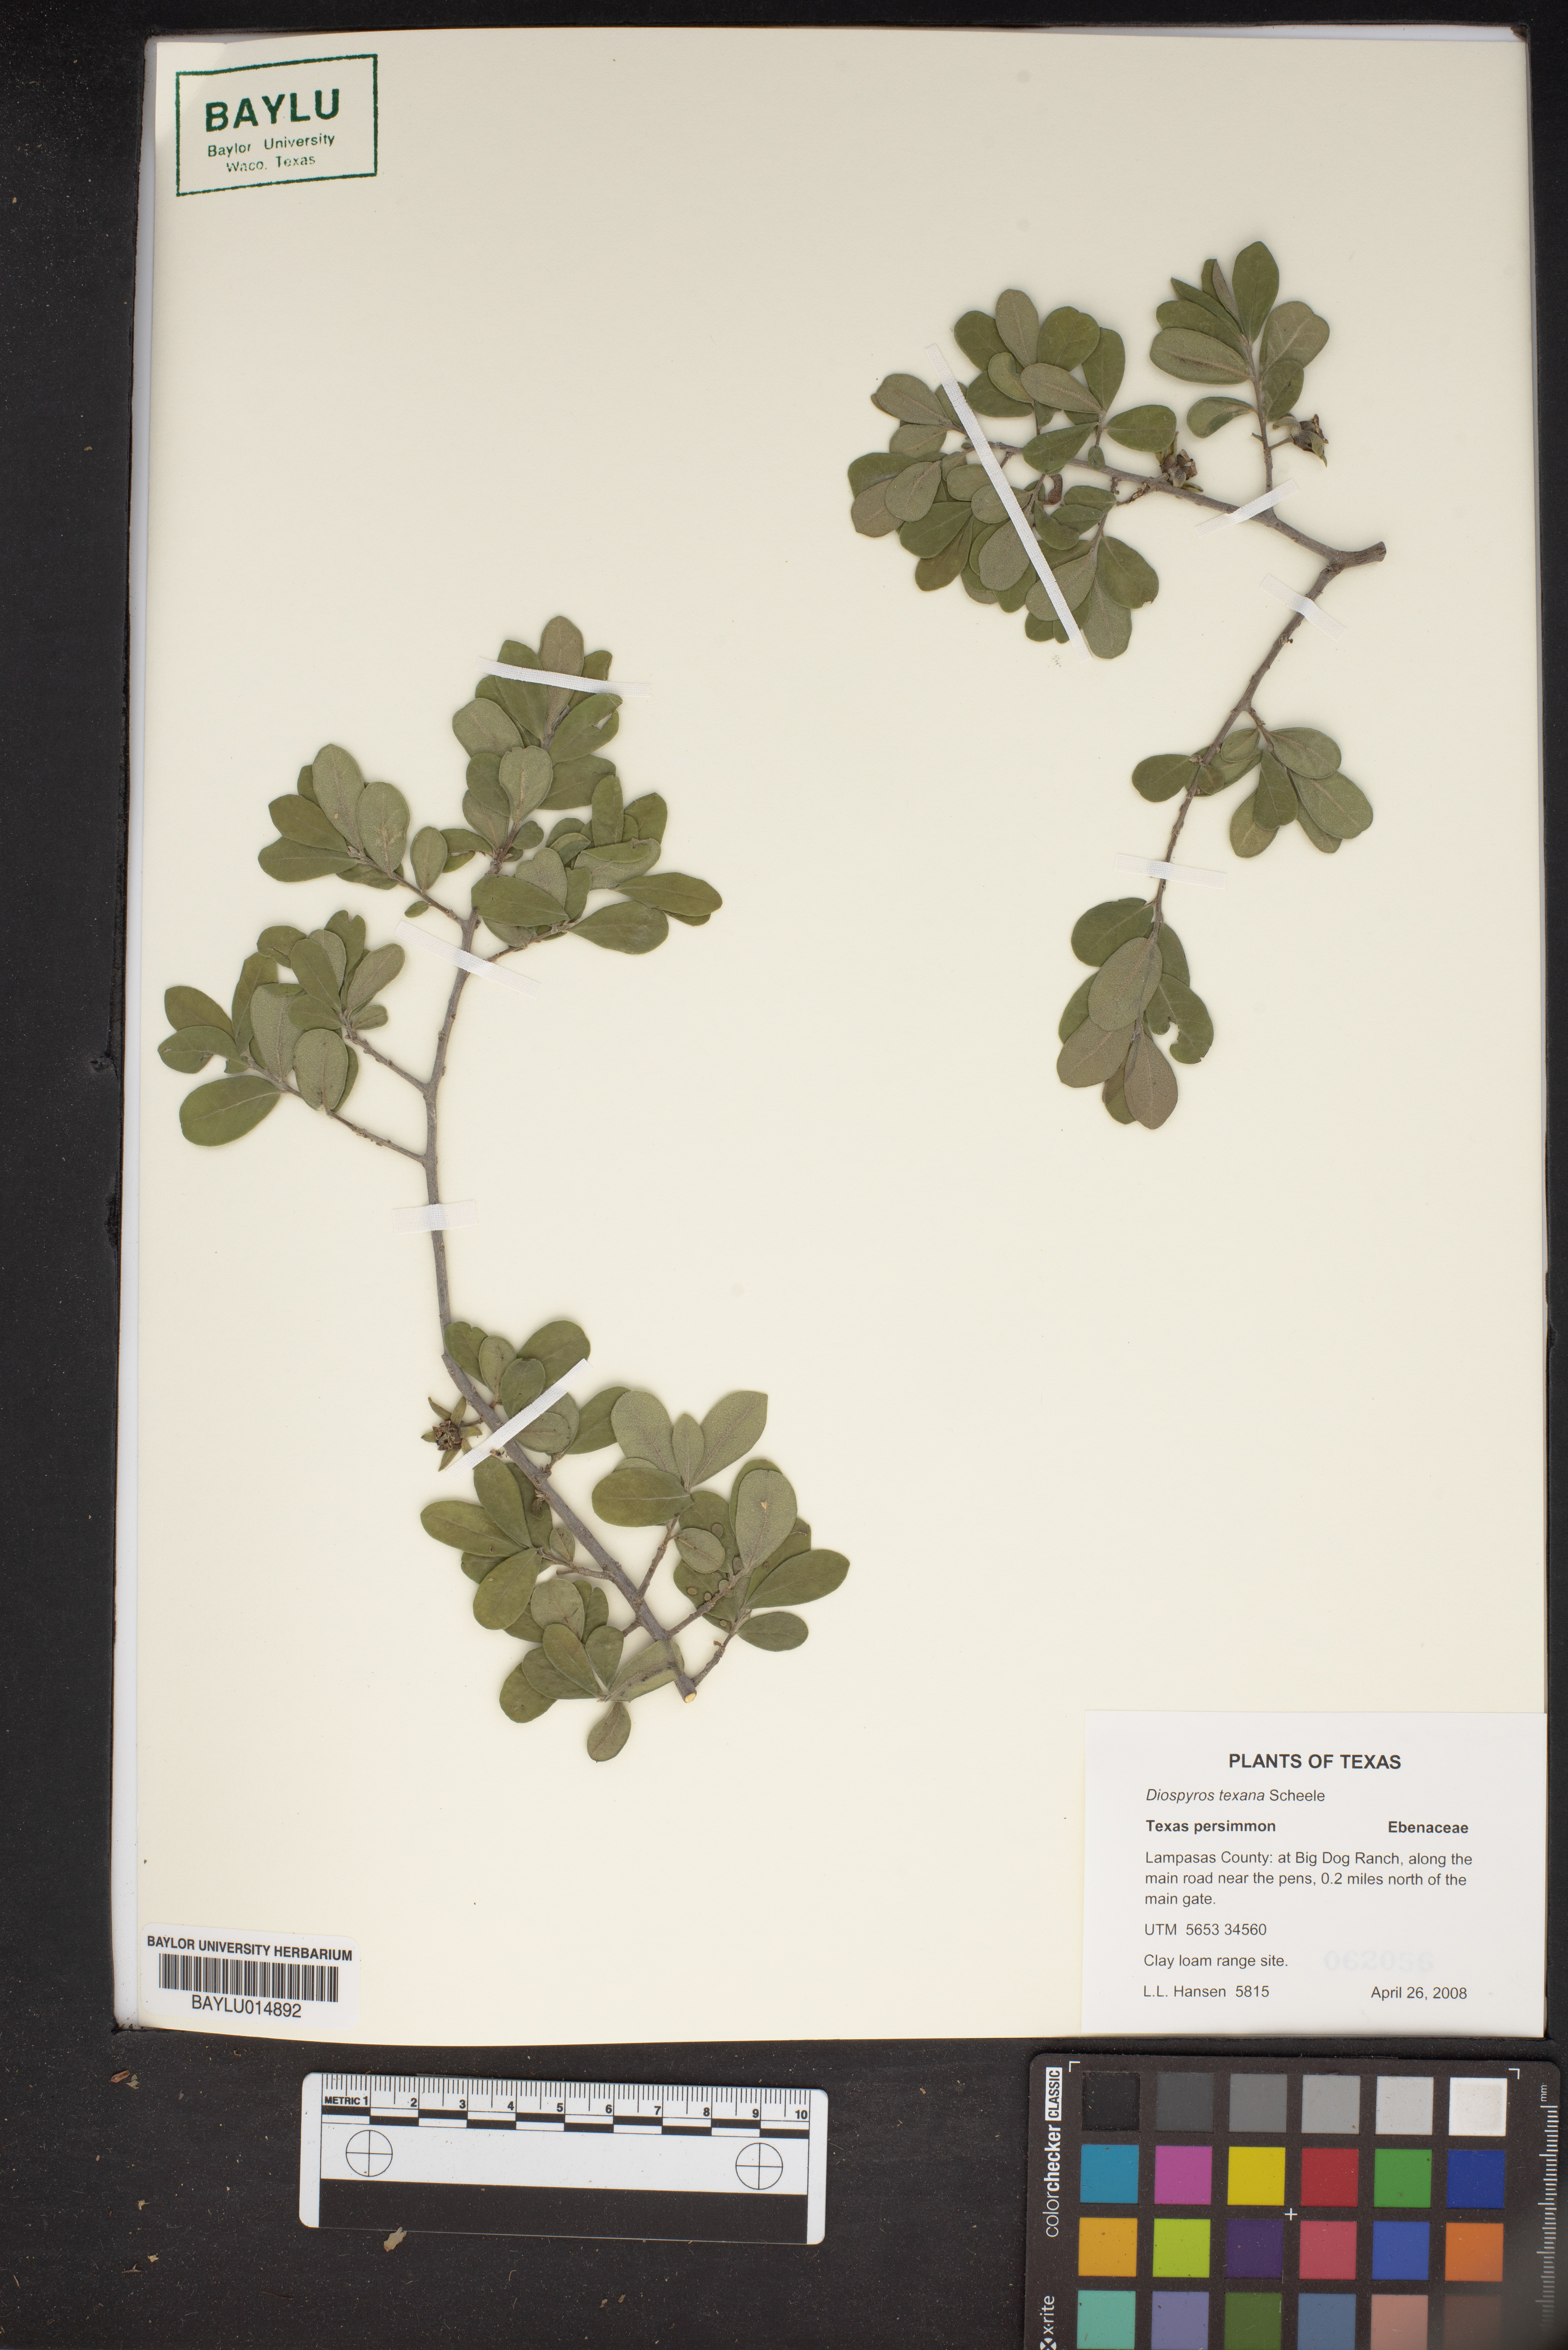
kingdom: Plantae
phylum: Tracheophyta
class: Magnoliopsida
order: Ericales
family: Ebenaceae
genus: Diospyros
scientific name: Diospyros texana
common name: Texas persimmon
